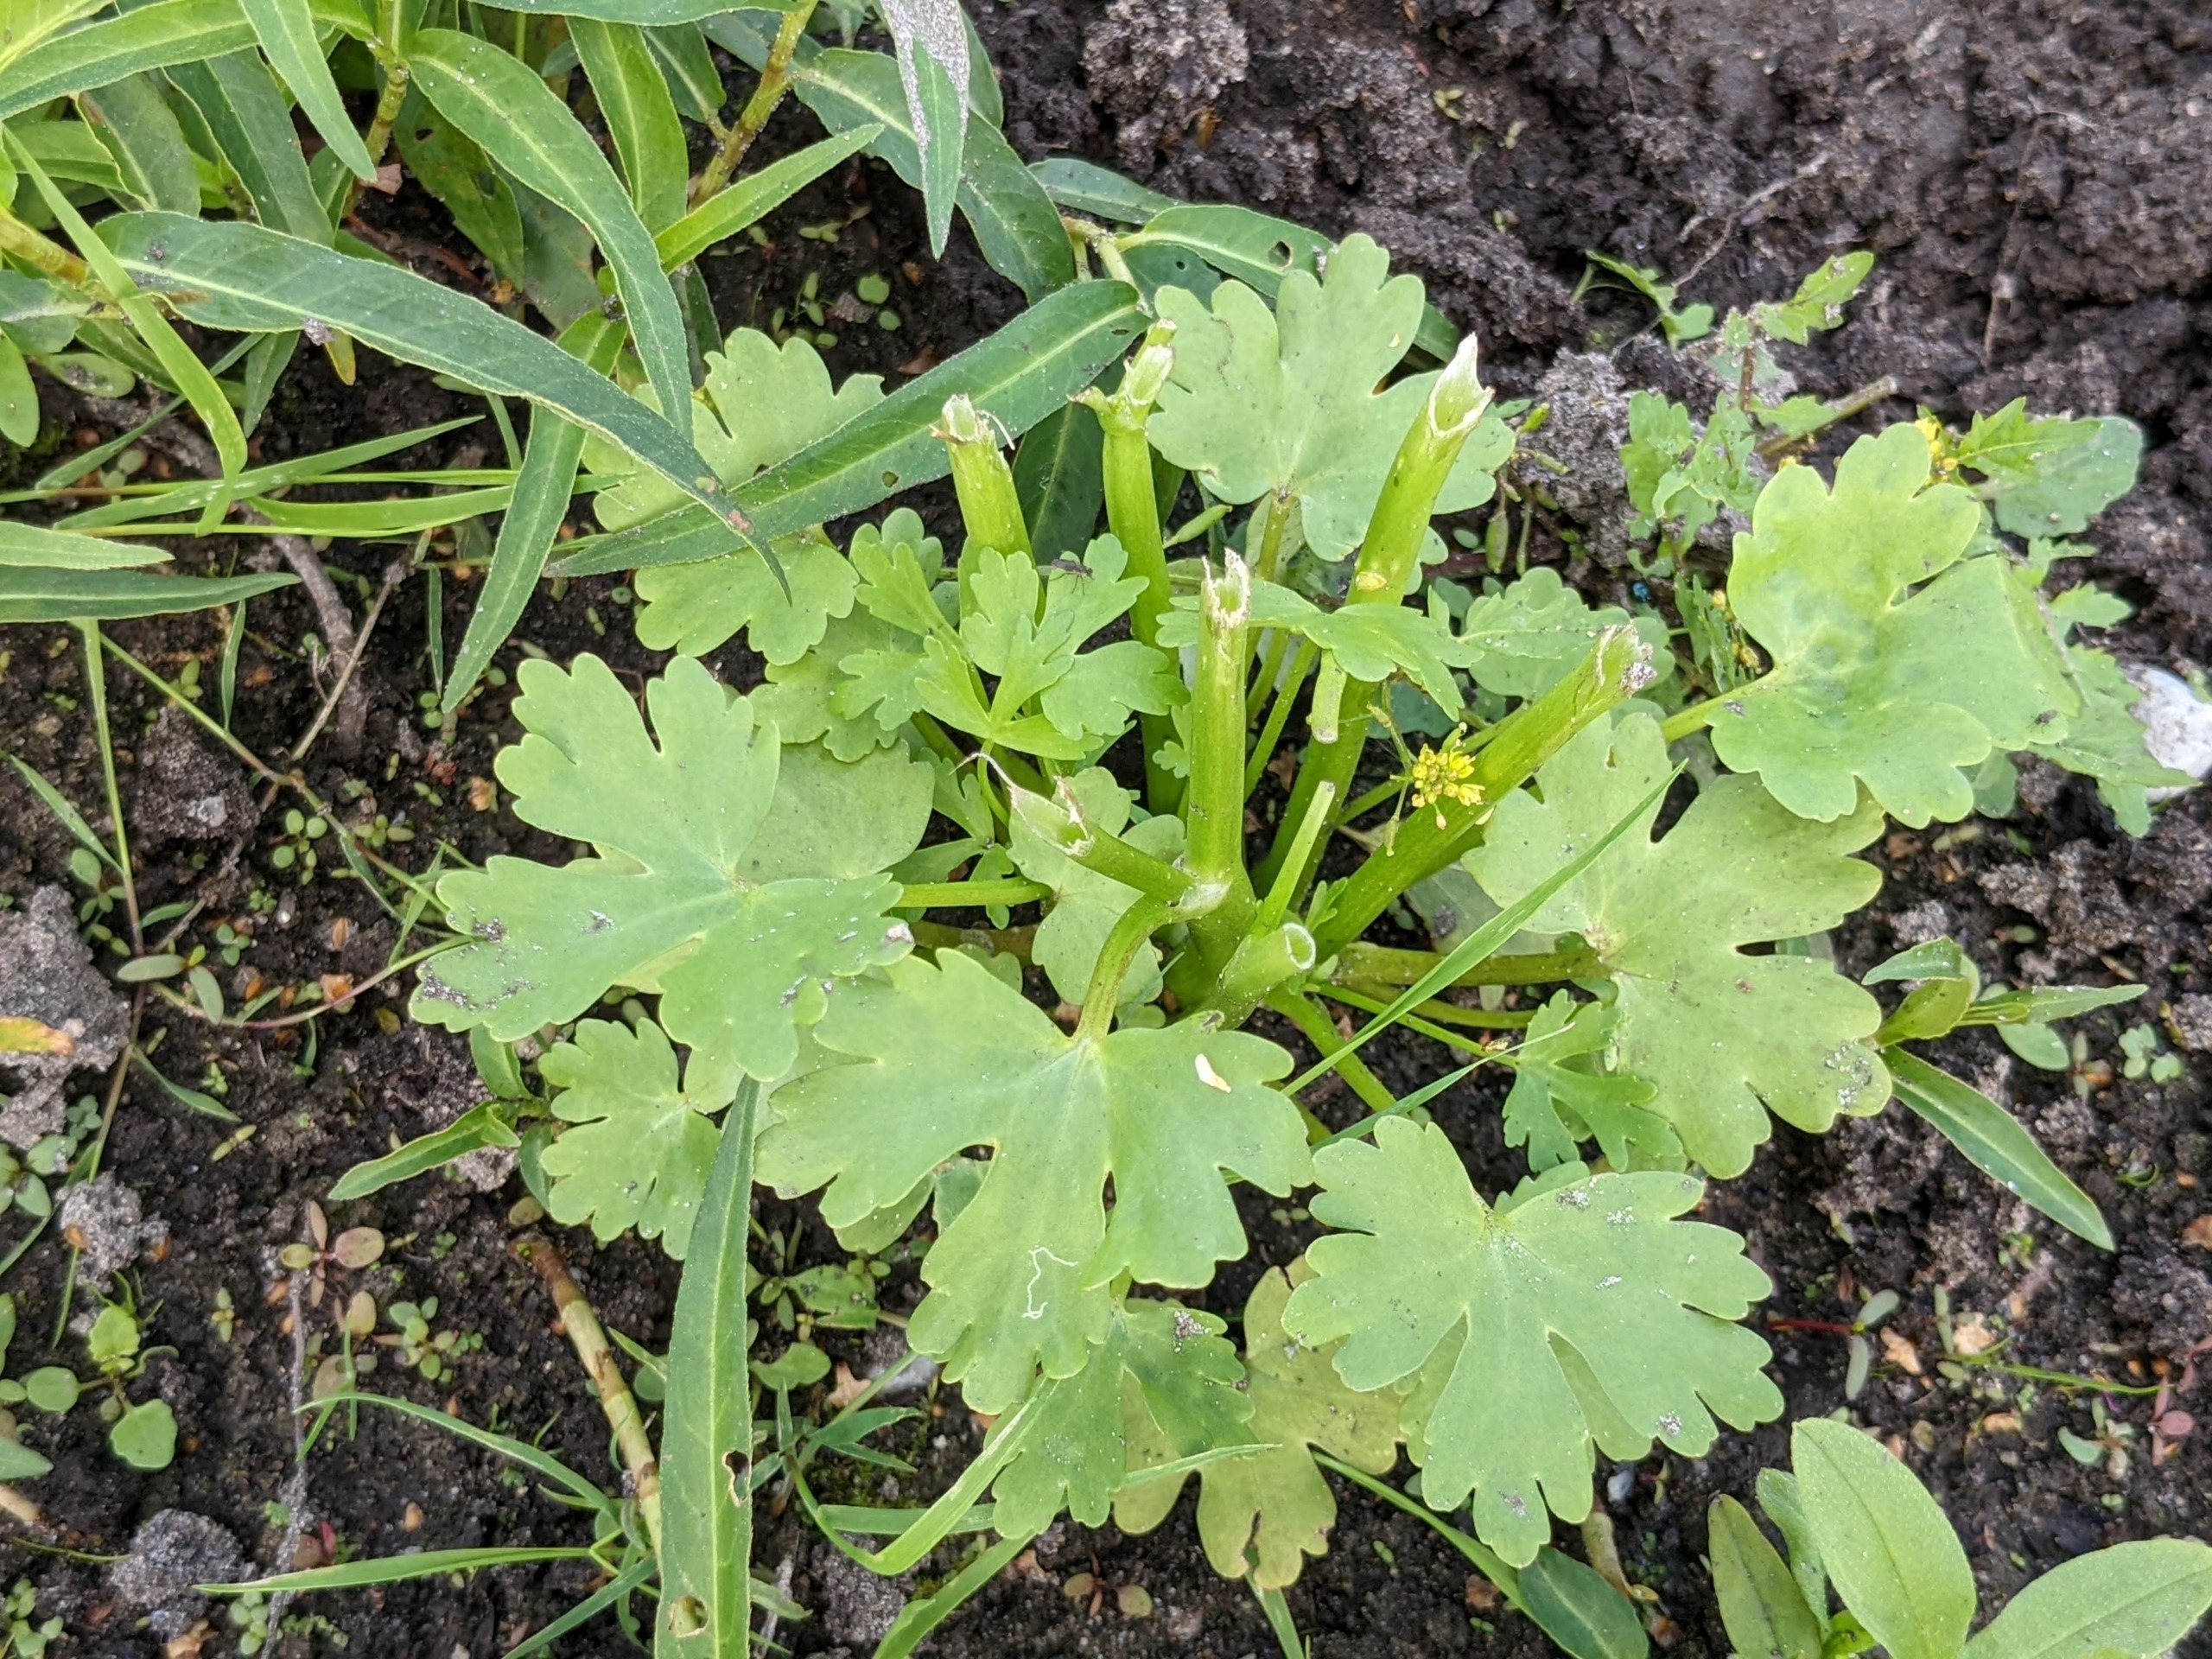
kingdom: Plantae
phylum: Tracheophyta
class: Magnoliopsida
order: Ranunculales
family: Ranunculaceae
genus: Ranunculus
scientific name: Ranunculus sceleratus
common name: Tigger-ranunkel
